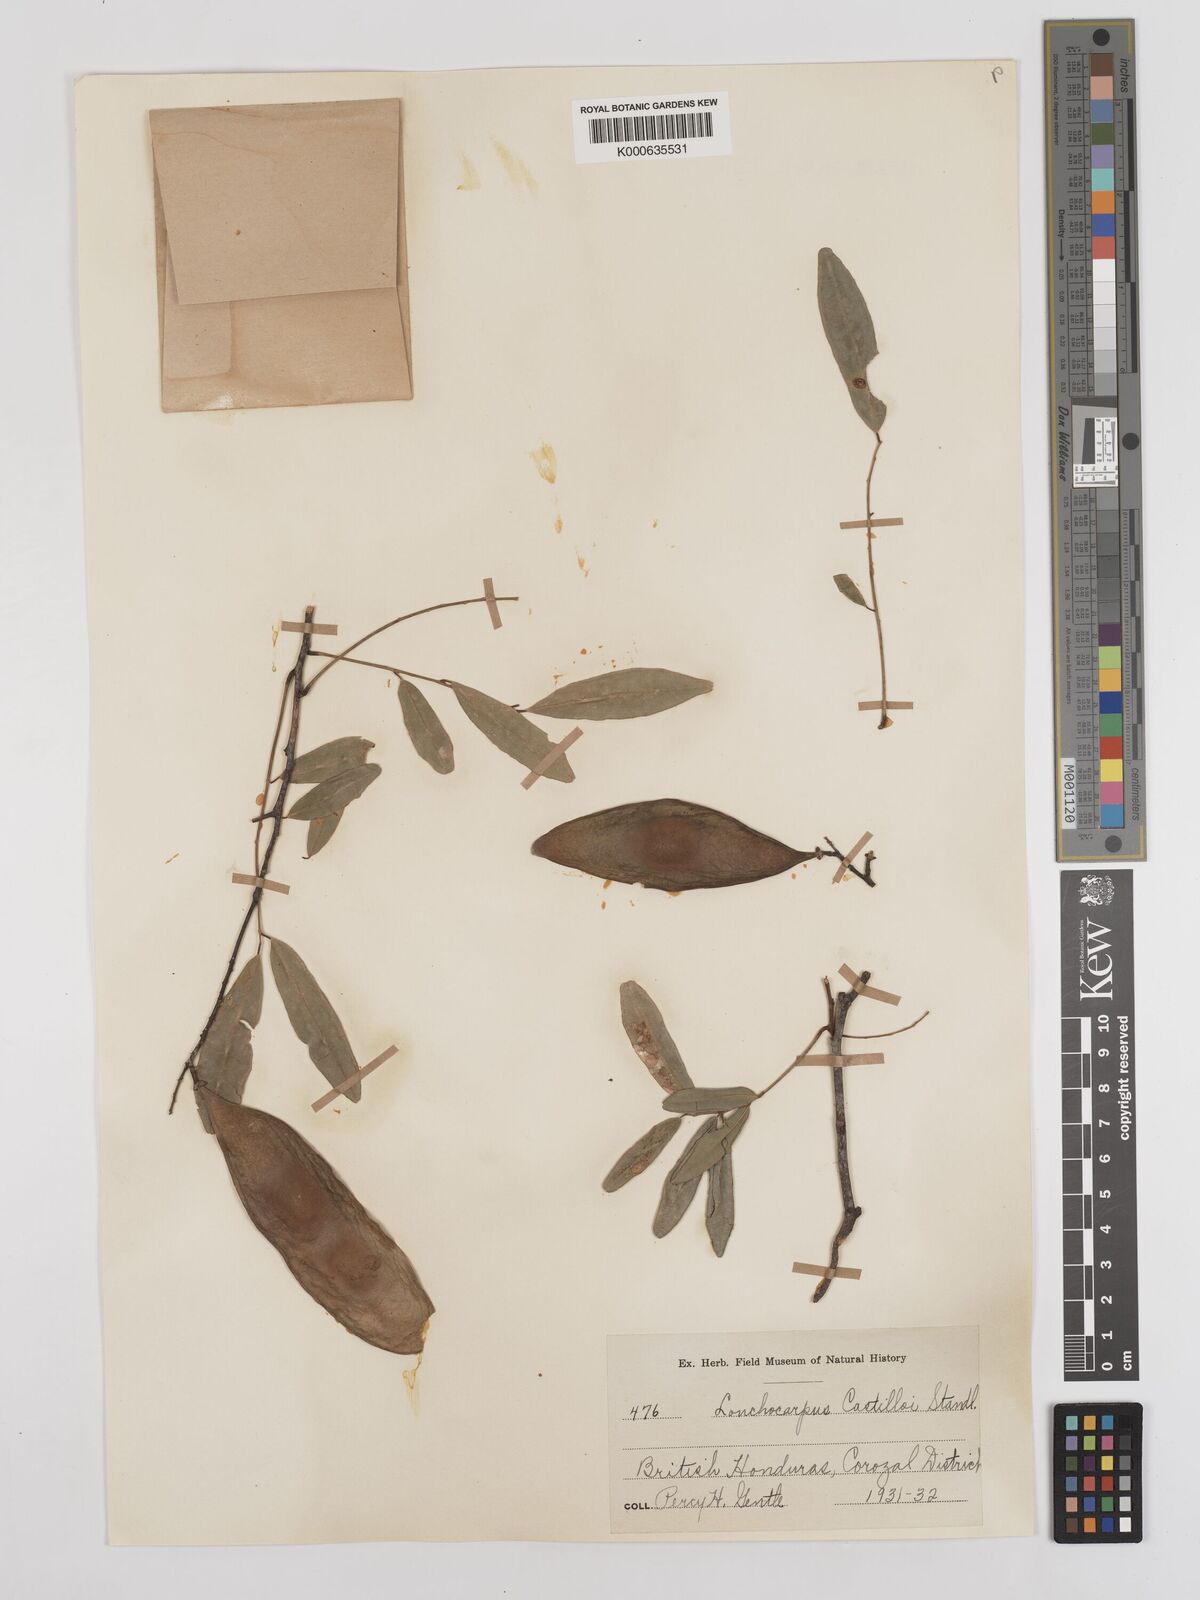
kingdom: Plantae
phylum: Tracheophyta
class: Magnoliopsida
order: Fabales
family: Fabaceae
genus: Lonchocarpus
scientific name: Lonchocarpus castilloi
